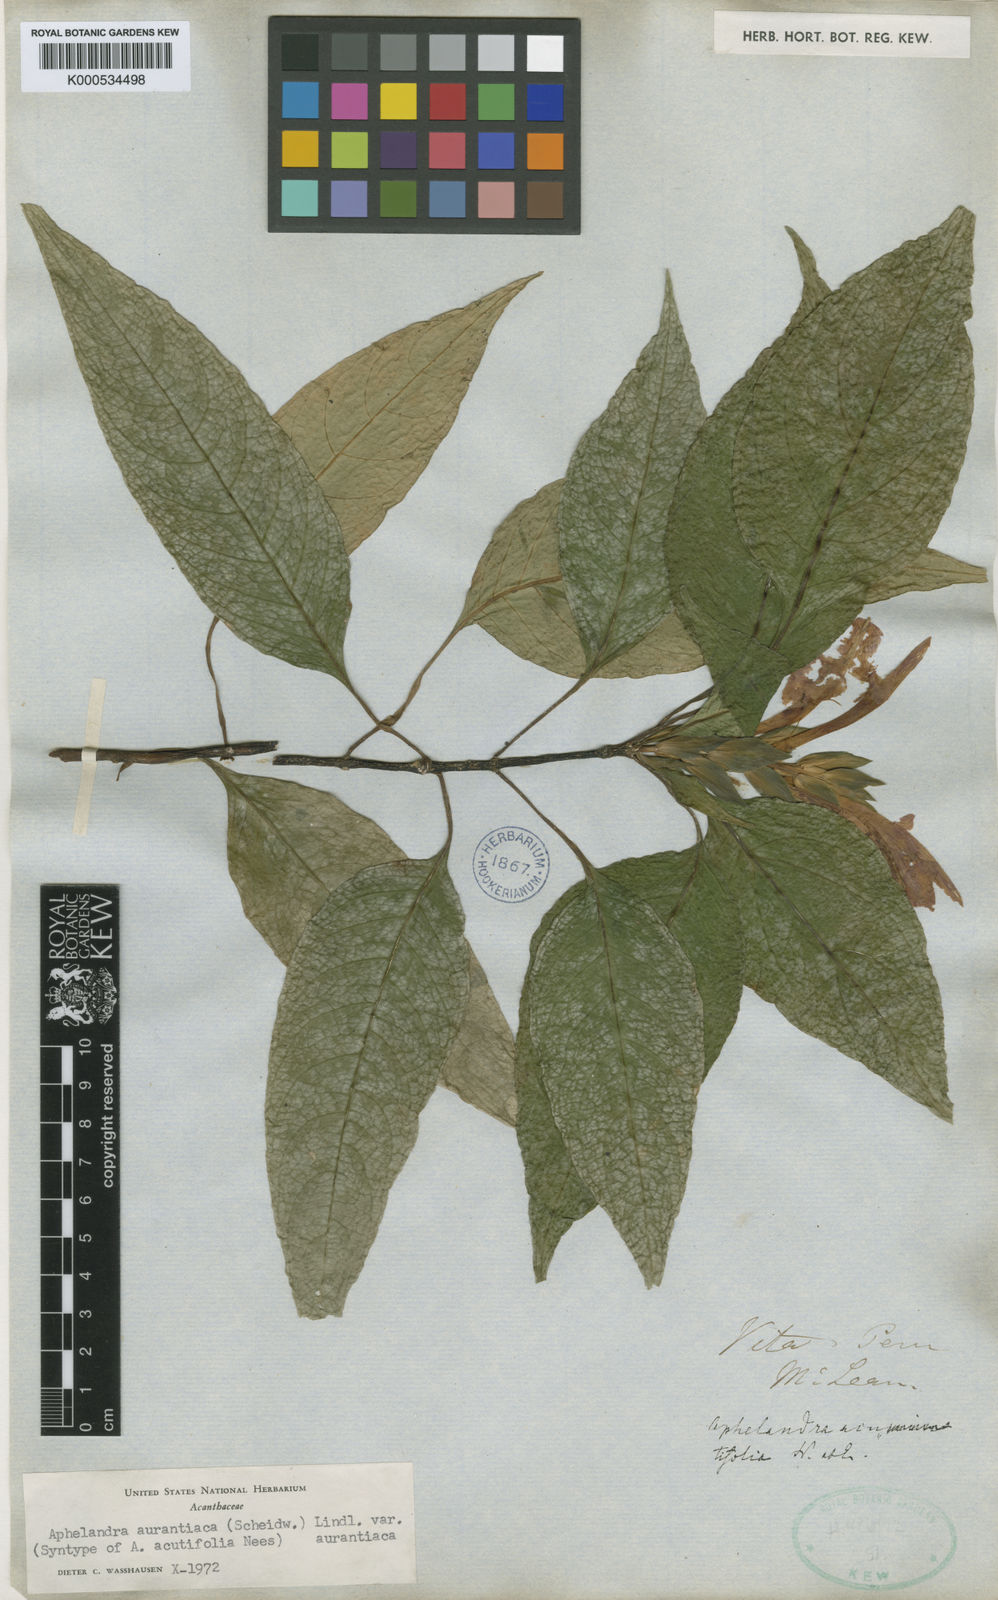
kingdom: Plantae
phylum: Tracheophyta
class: Magnoliopsida
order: Lamiales
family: Acanthaceae
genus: Aphelandra
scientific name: Aphelandra aurantiaca
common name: Fiery spike
